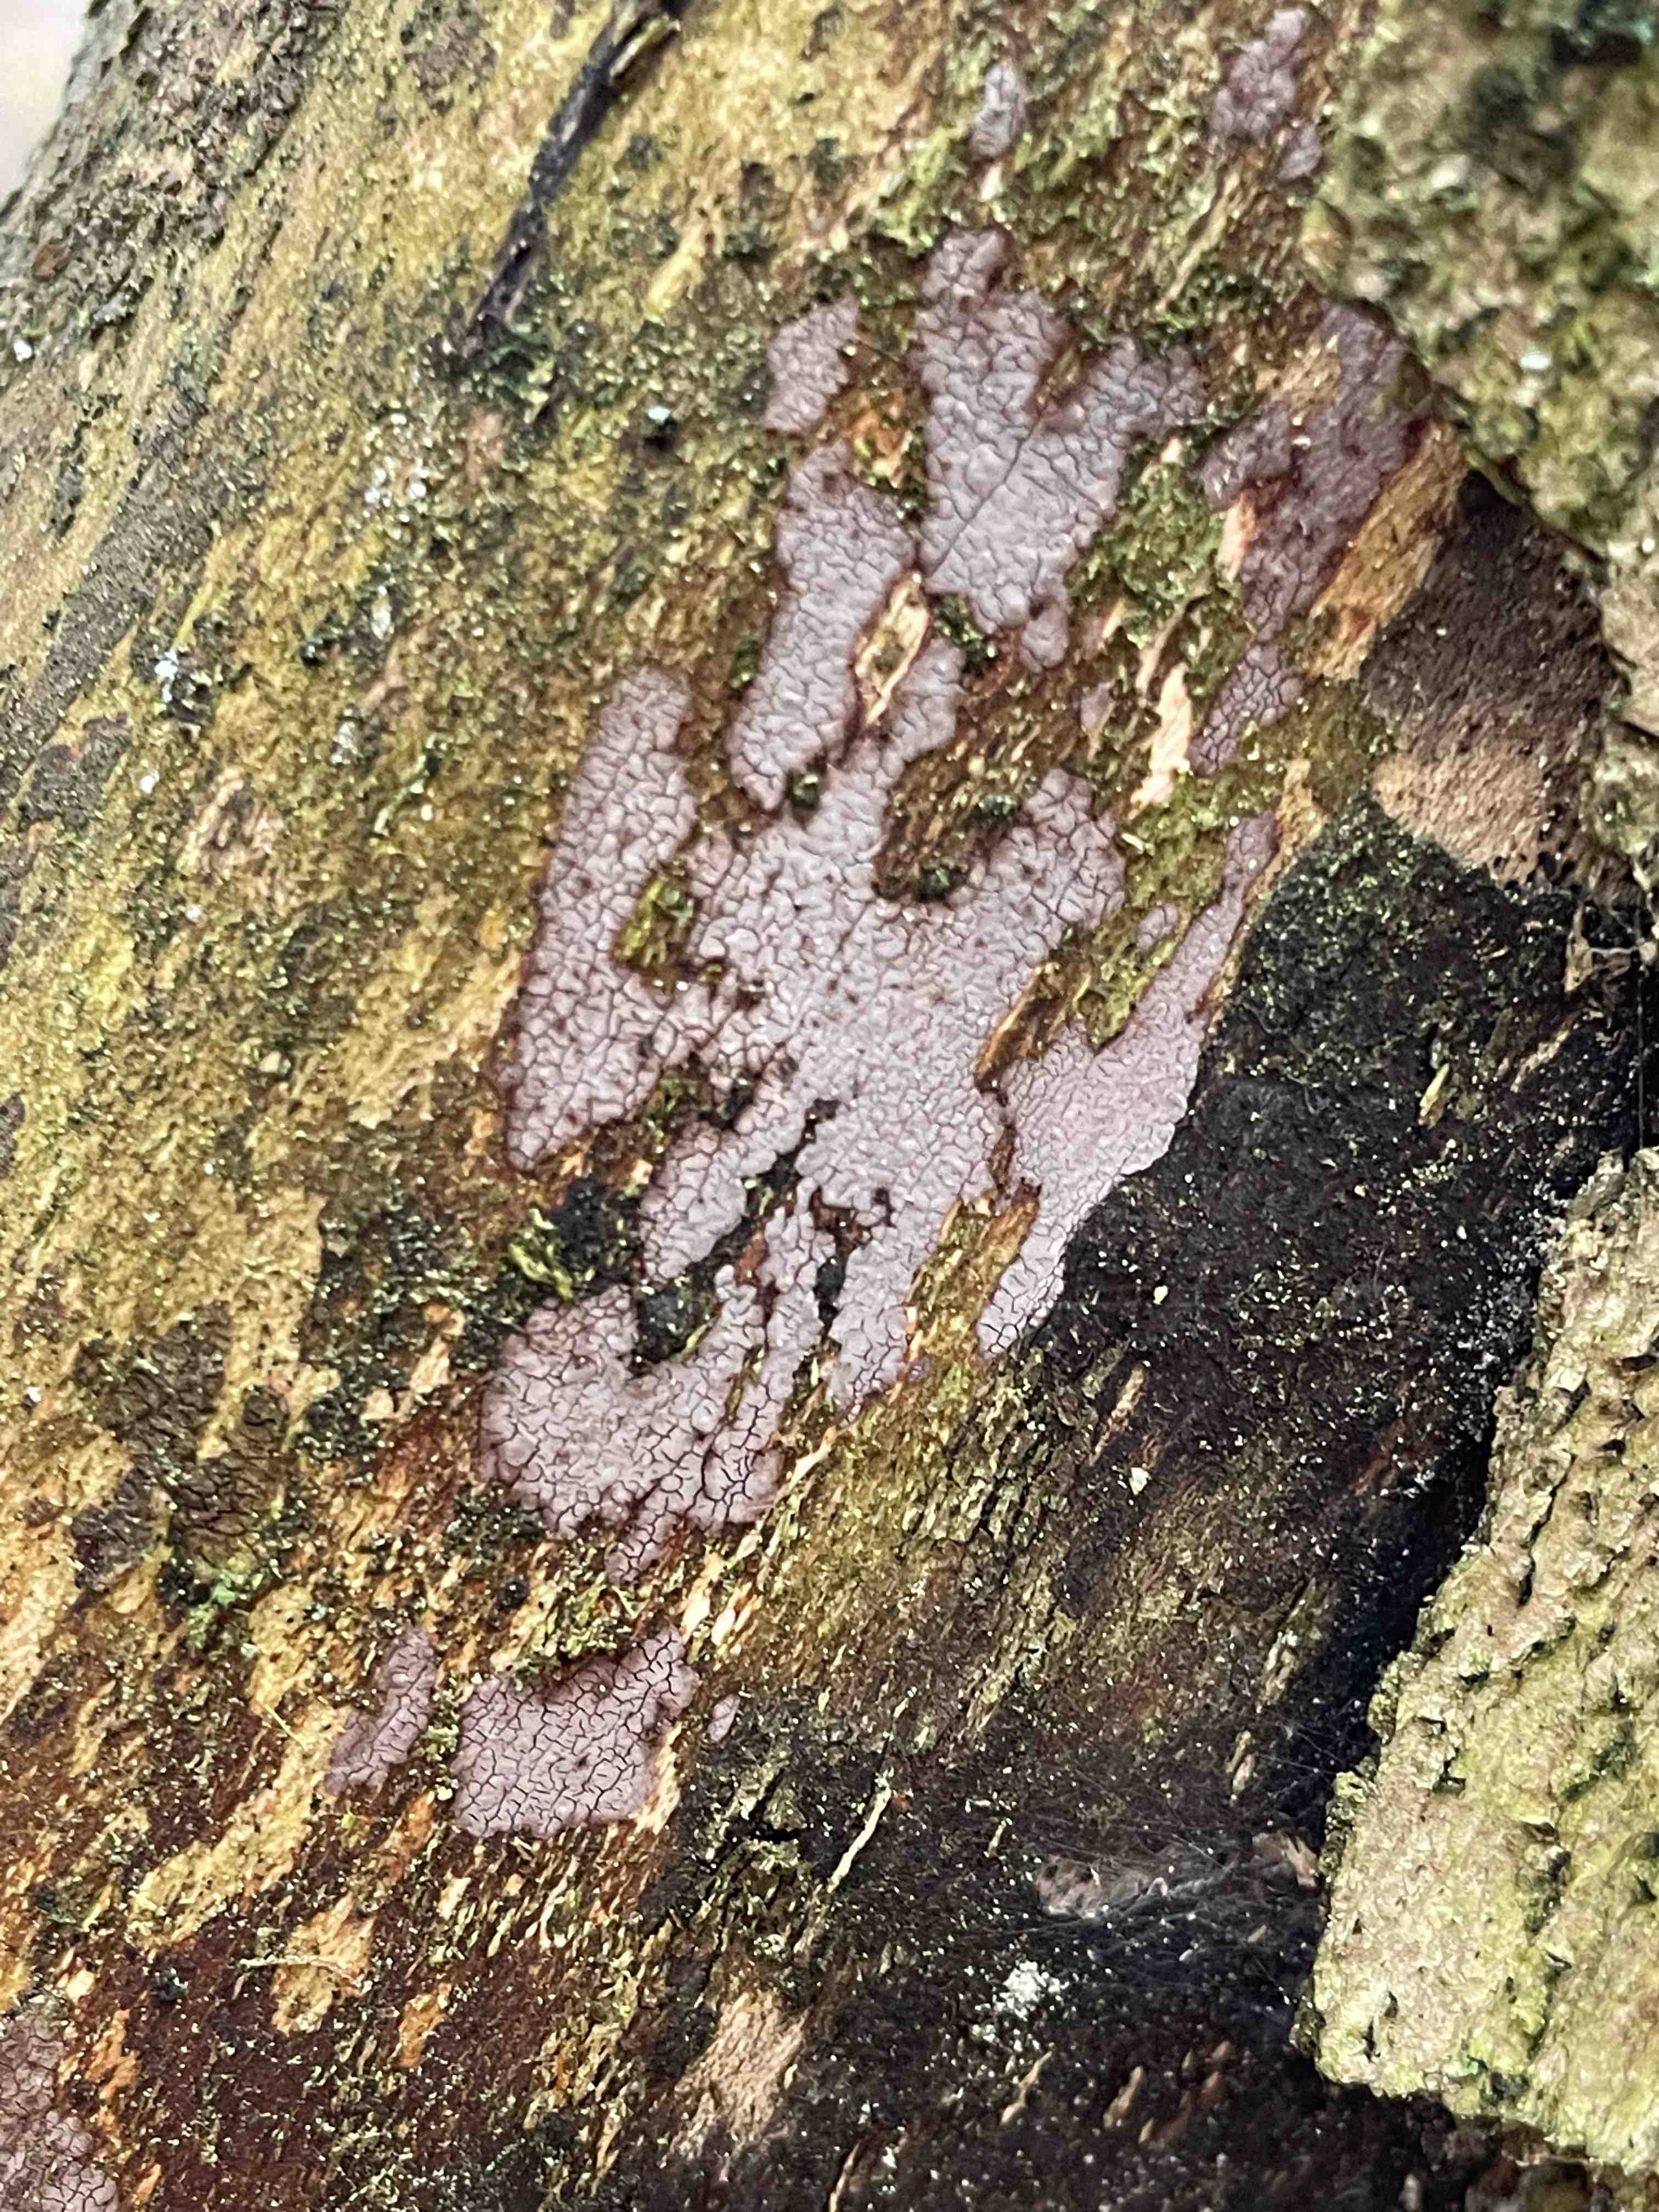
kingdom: Fungi
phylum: Basidiomycota
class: Agaricomycetes
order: Russulales
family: Peniophoraceae
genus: Peniophora
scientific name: Peniophora
